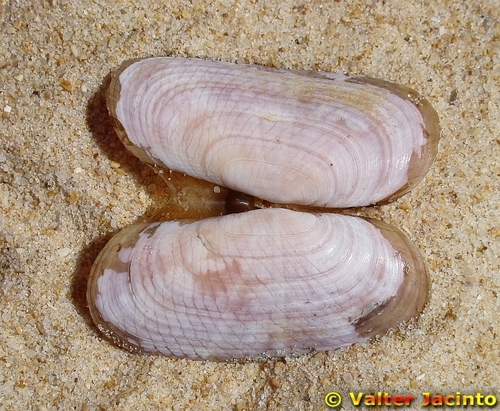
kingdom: Animalia
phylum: Mollusca
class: Bivalvia
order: Cardiida
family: Solecurtidae
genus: Solecurtus
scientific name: Solecurtus strigilatus
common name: Rosy razor clam
